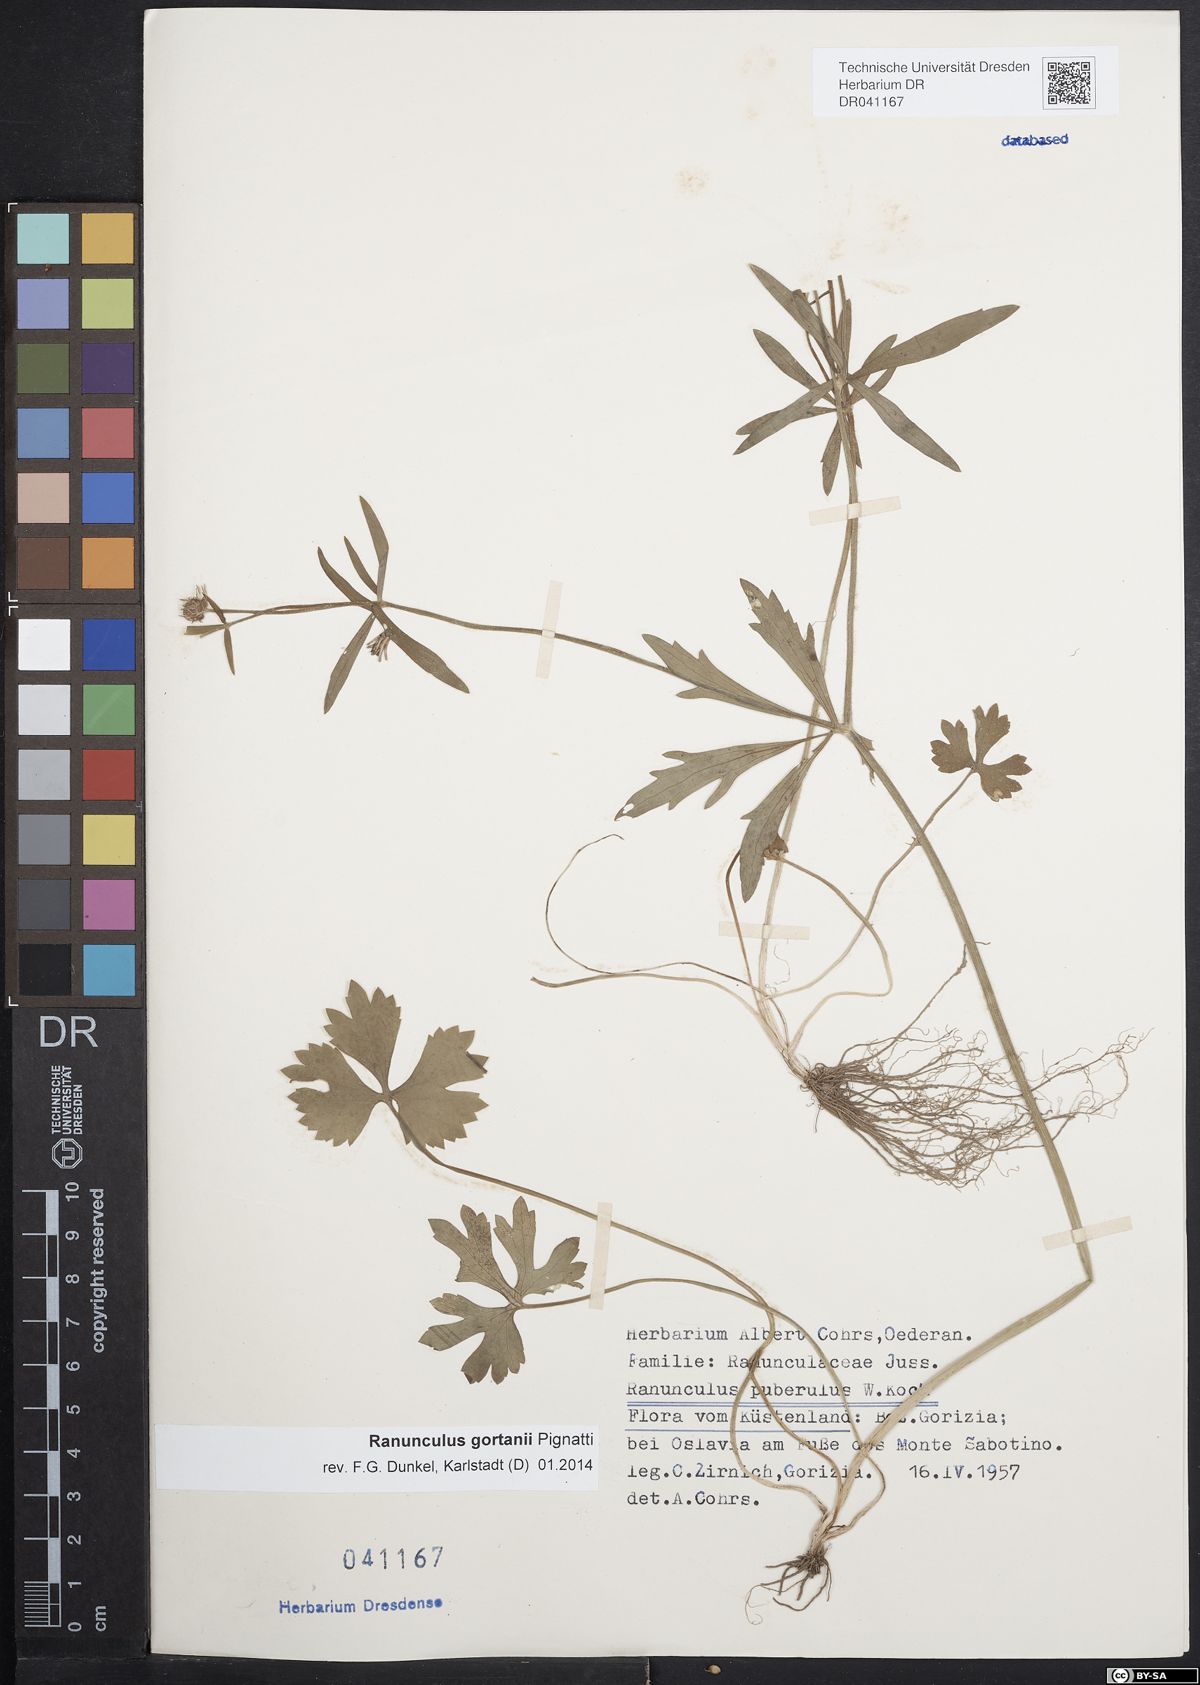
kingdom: Plantae
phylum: Tracheophyta
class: Magnoliopsida
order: Ranunculales
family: Ranunculaceae
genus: Ranunculus
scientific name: Ranunculus gortanii
